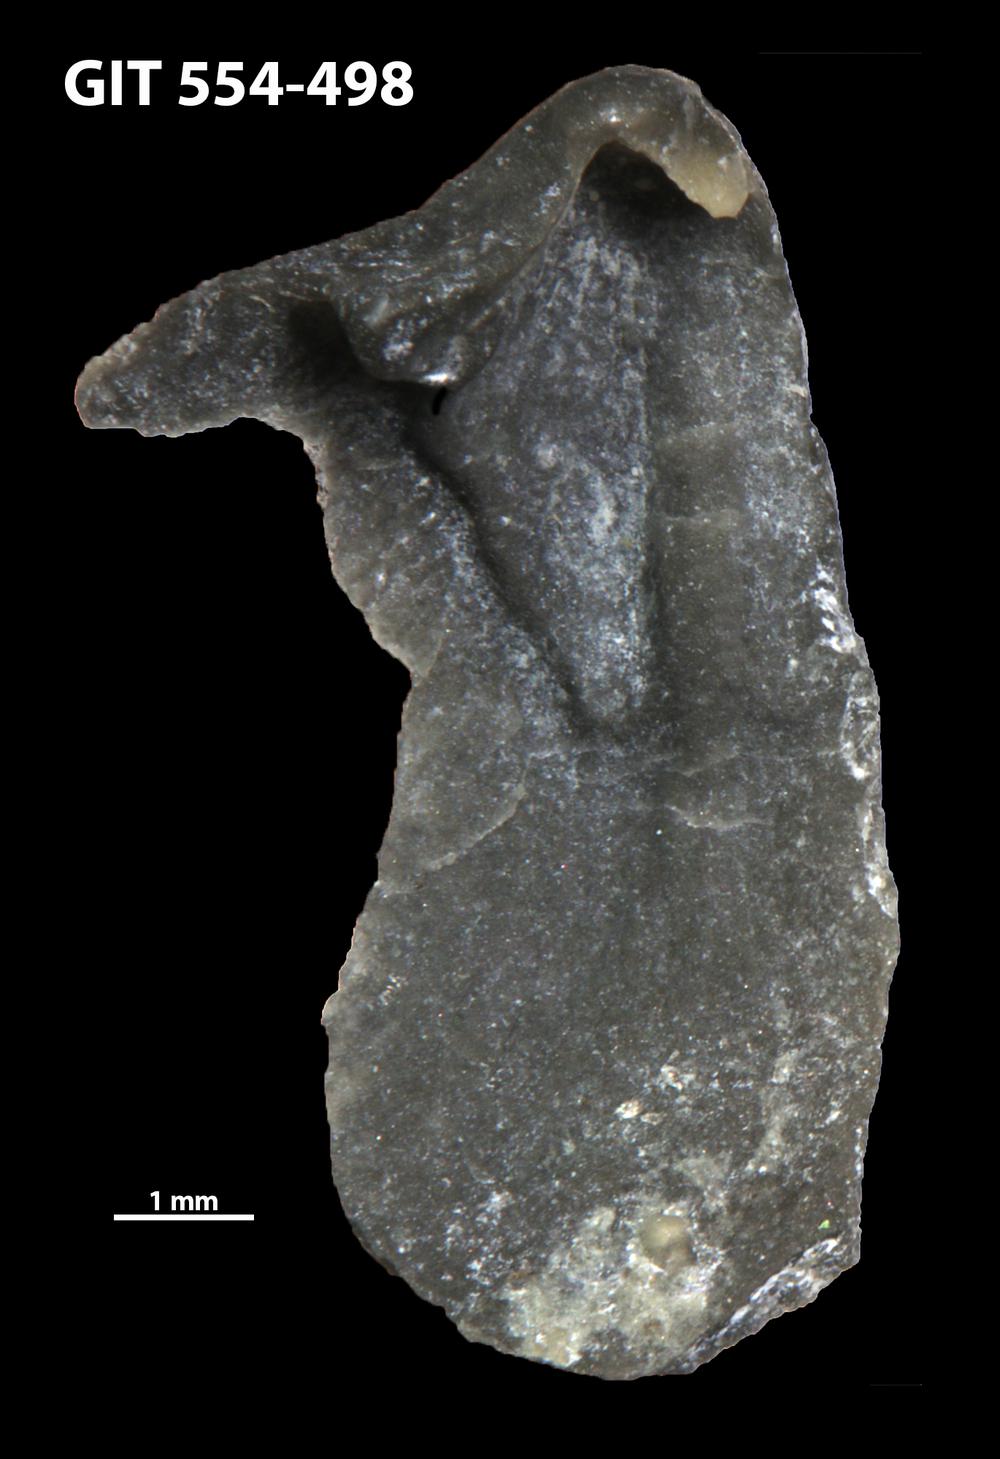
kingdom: Animalia
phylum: Brachiopoda
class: Rhynchonellata
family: Dalmanellidae
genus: Isorthis
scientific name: Isorthis parvulus
